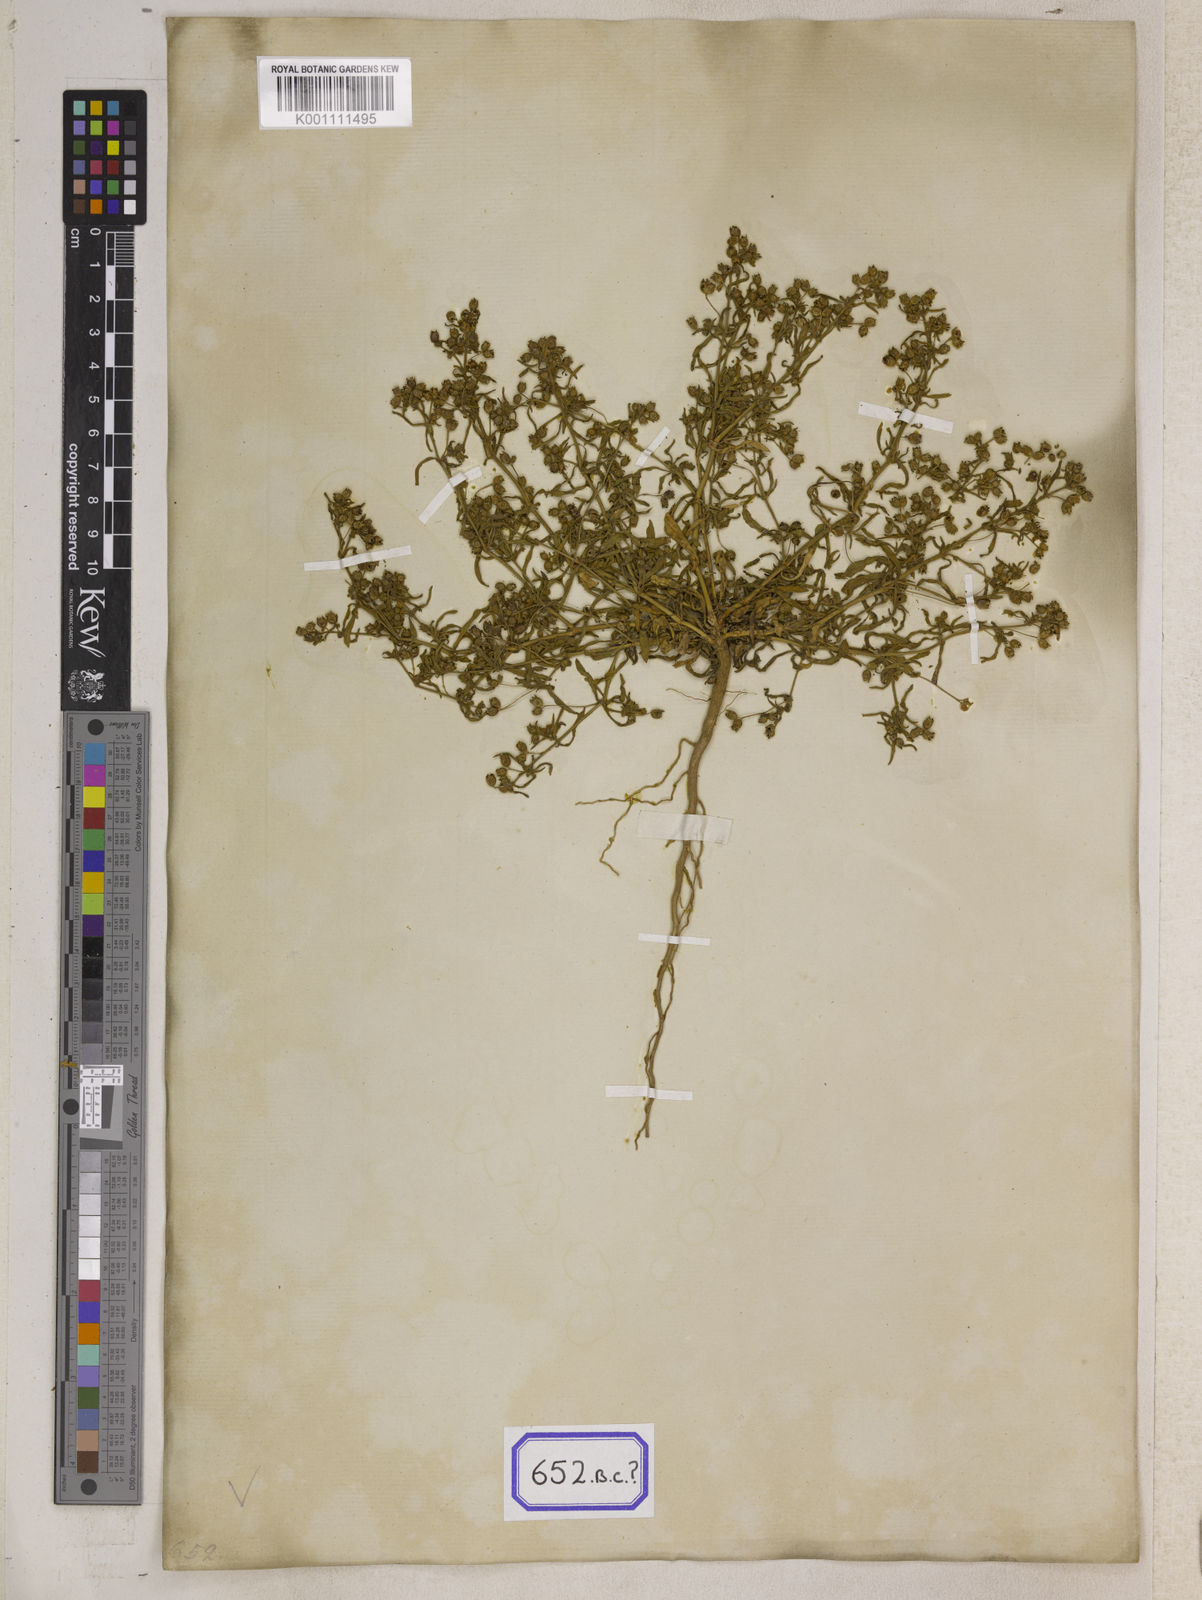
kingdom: Plantae
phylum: Tracheophyta
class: Magnoliopsida
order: Caryophyllales
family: Molluginaceae
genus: Mollugo
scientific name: Mollugo disticha
